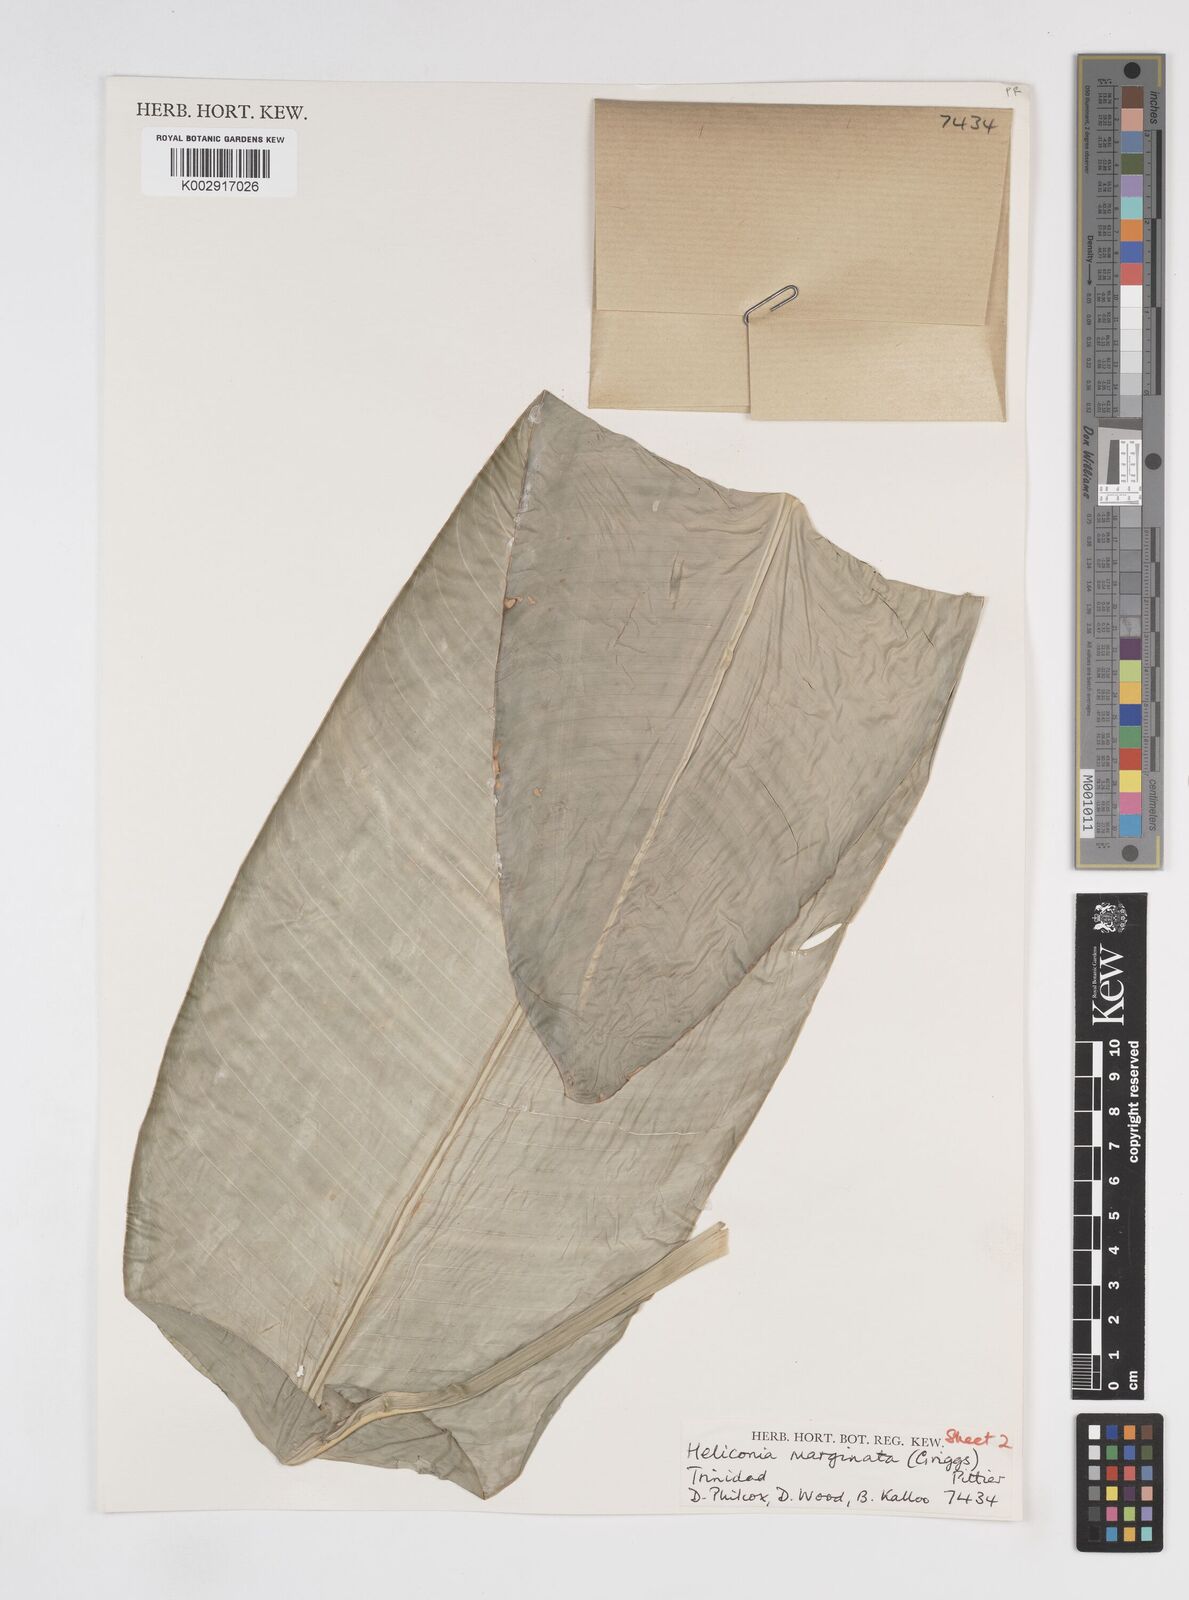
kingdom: Plantae
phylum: Tracheophyta
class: Liliopsida
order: Zingiberales
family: Heliconiaceae
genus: Heliconia
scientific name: Heliconia marginata
